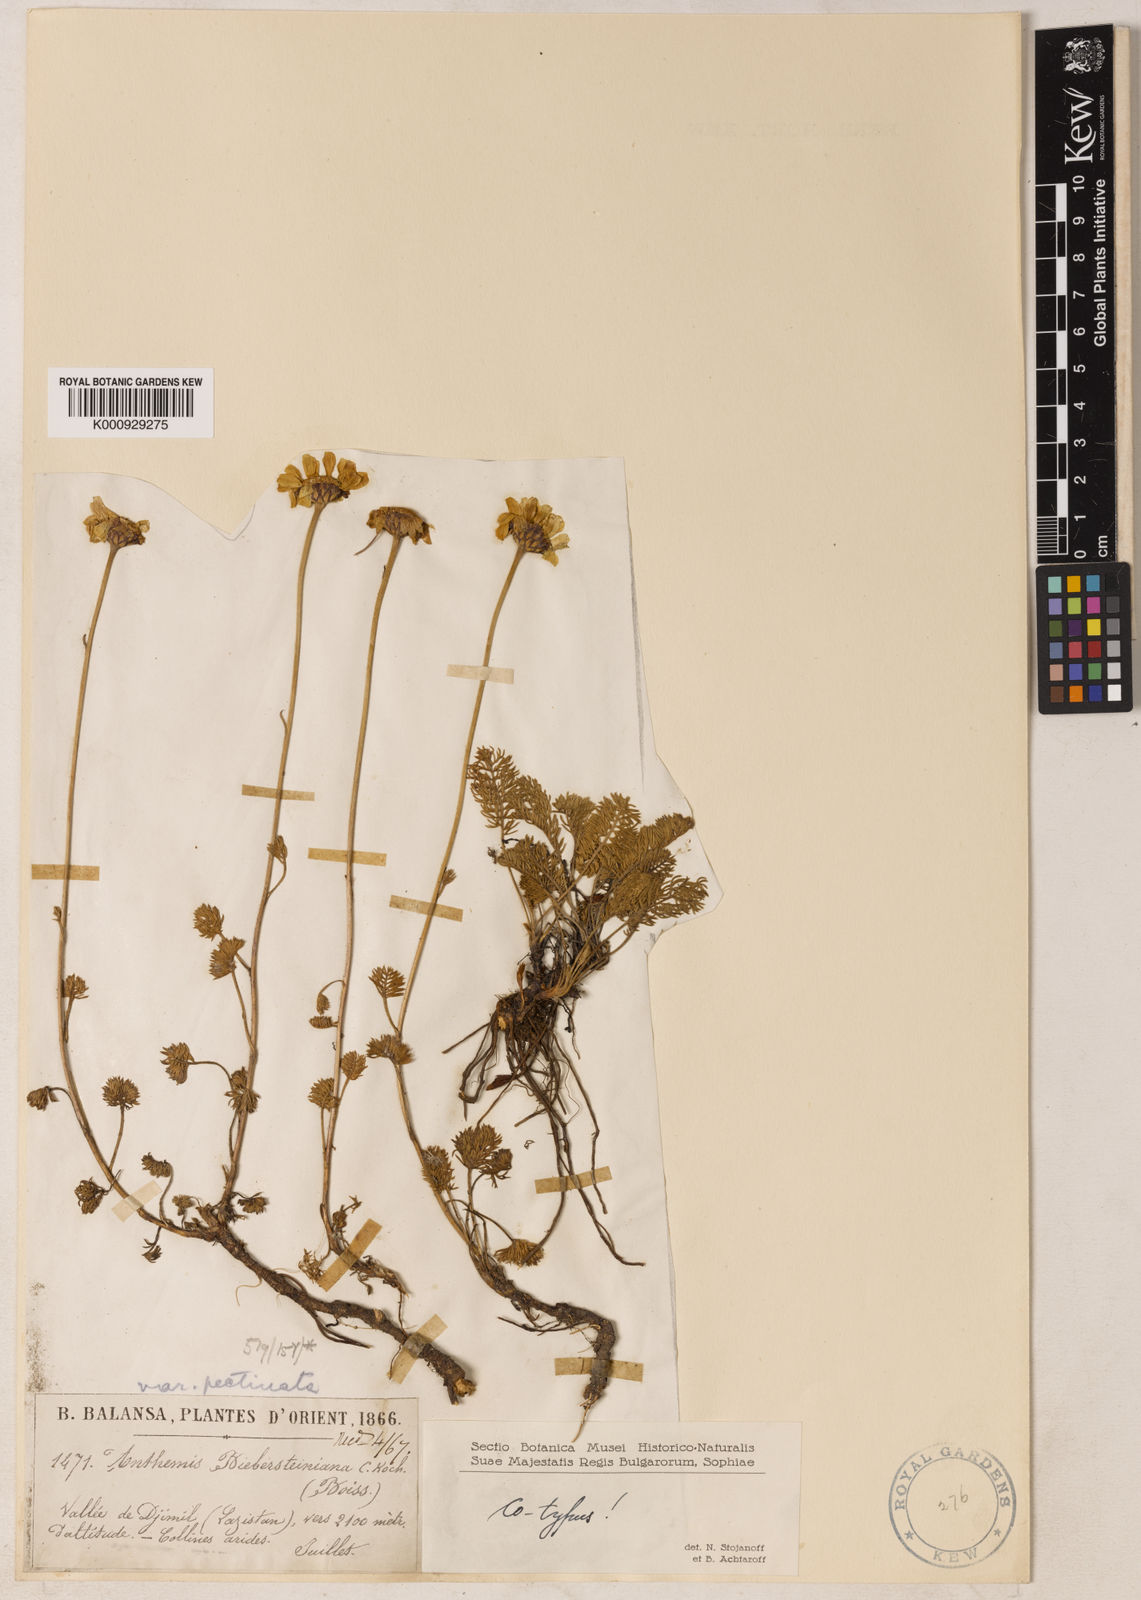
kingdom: Plantae
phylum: Tracheophyta
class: Magnoliopsida
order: Asterales
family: Asteraceae
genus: Archanthemis
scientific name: Archanthemis marschalliana
